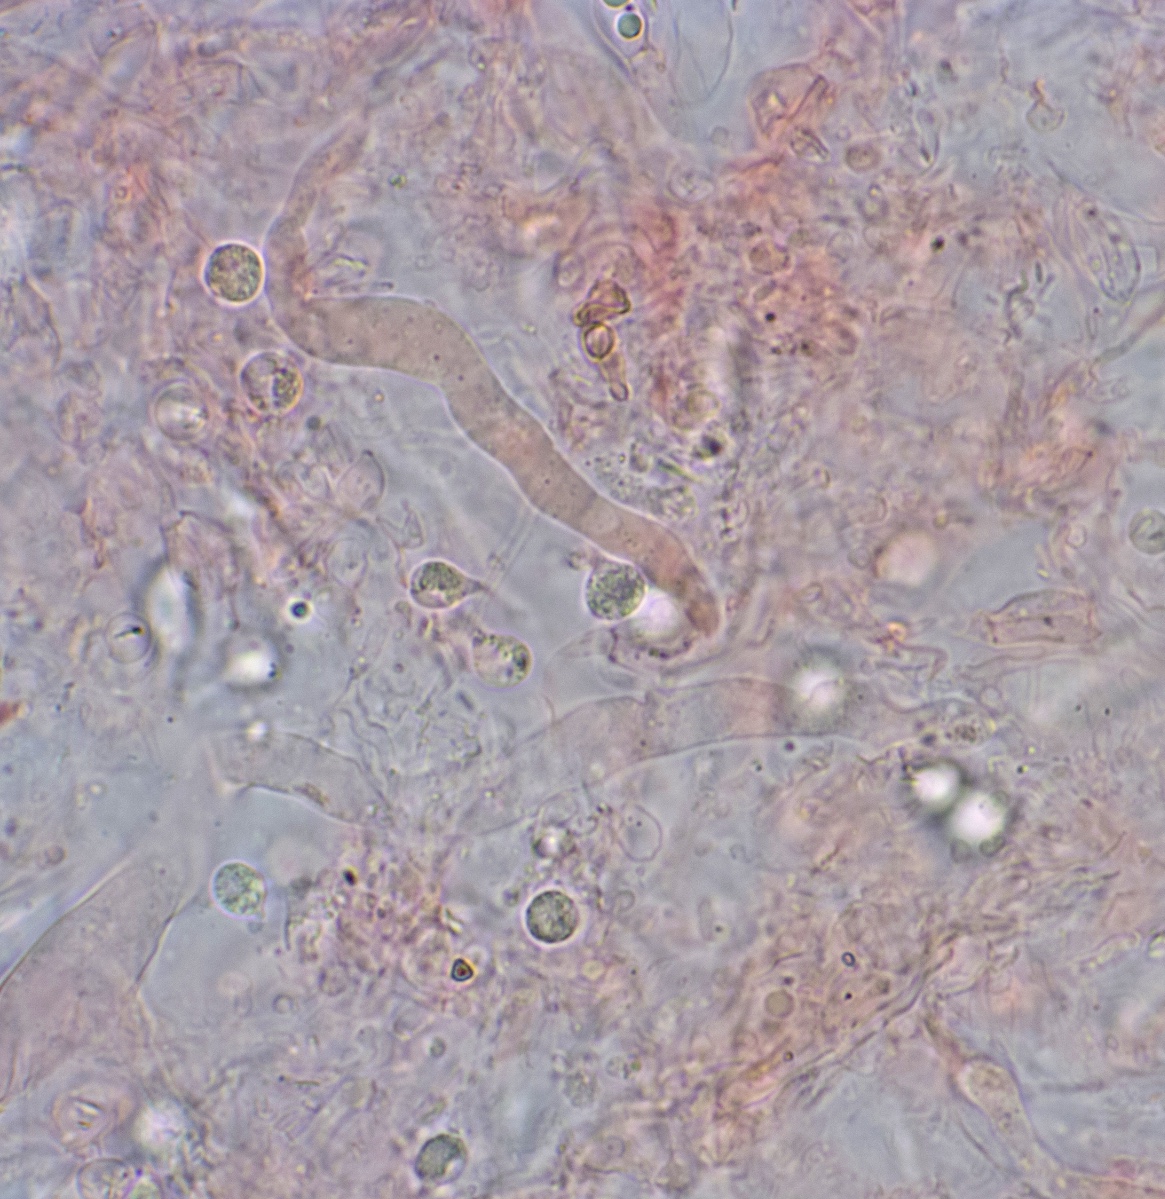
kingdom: Fungi
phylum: Basidiomycota
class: Agaricomycetes
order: Auriculariales
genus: Mycostilla
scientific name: Mycostilla vermiformis
